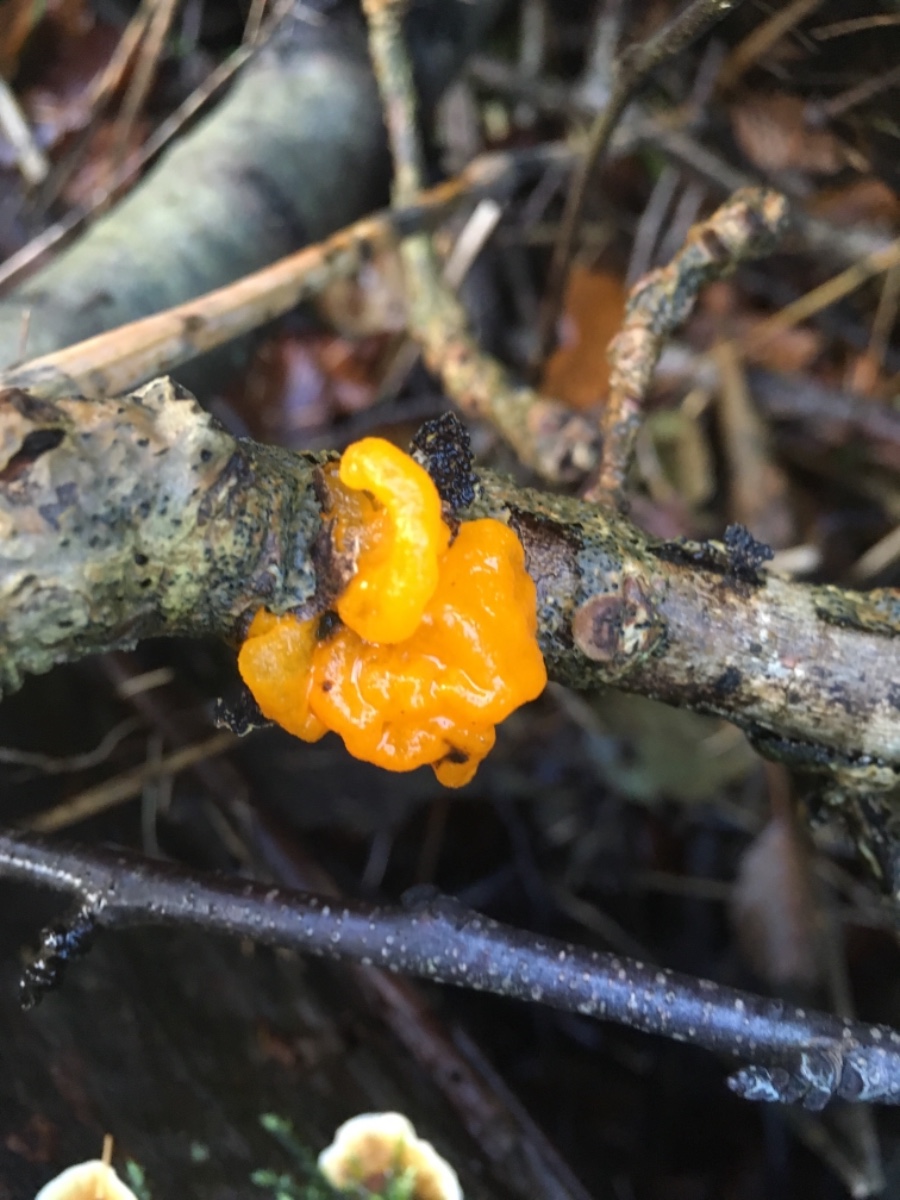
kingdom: Fungi
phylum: Basidiomycota
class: Tremellomycetes
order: Tremellales
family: Tremellaceae
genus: Tremella
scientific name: Tremella mesenterica
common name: gul bævresvamp
